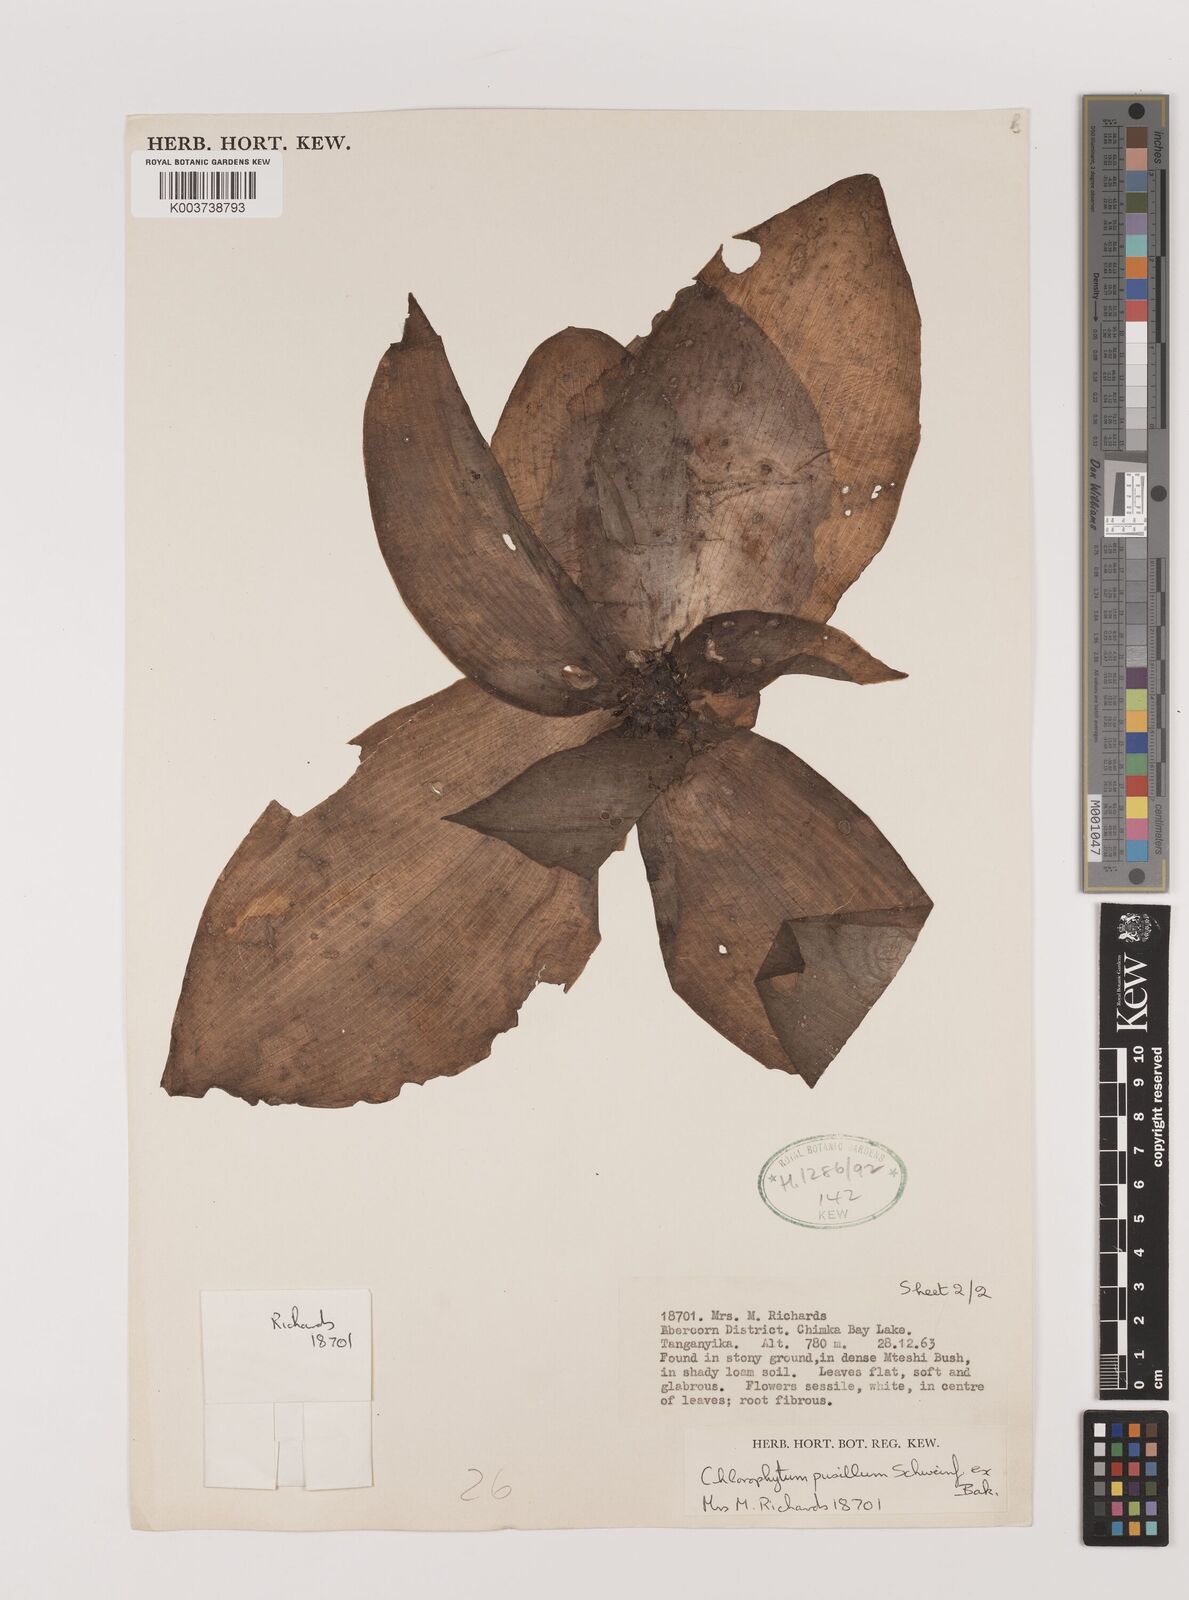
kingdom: Plantae
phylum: Tracheophyta
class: Liliopsida
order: Asparagales
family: Asparagaceae
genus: Chlorophytum
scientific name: Chlorophytum pusillum
